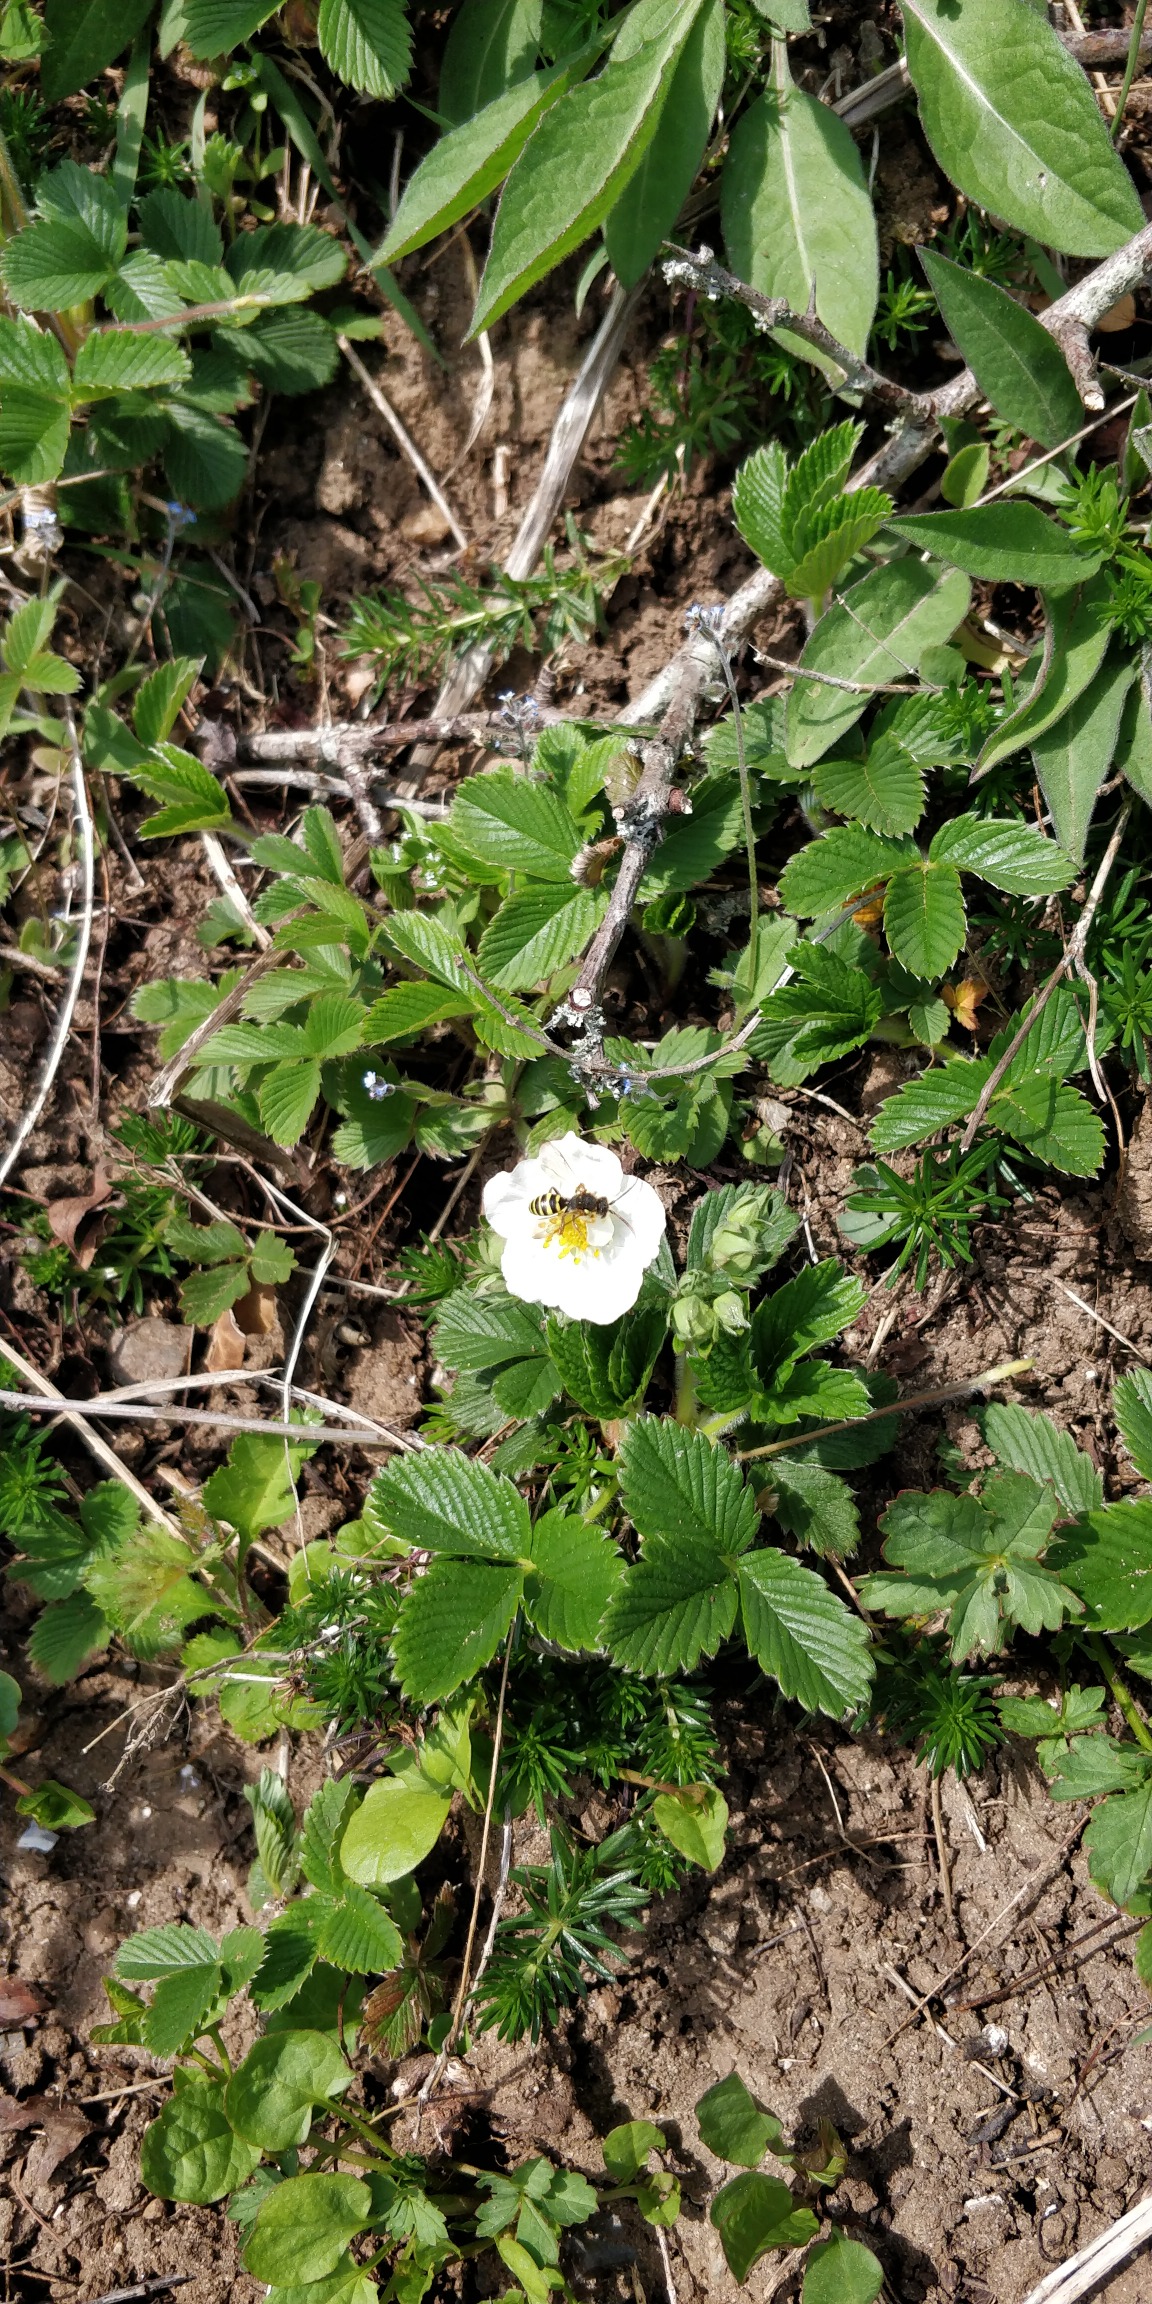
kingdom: Plantae
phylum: Tracheophyta
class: Magnoliopsida
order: Rosales
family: Rosaceae
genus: Fragaria
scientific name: Fragaria viridis
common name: Bakke-jordbær
